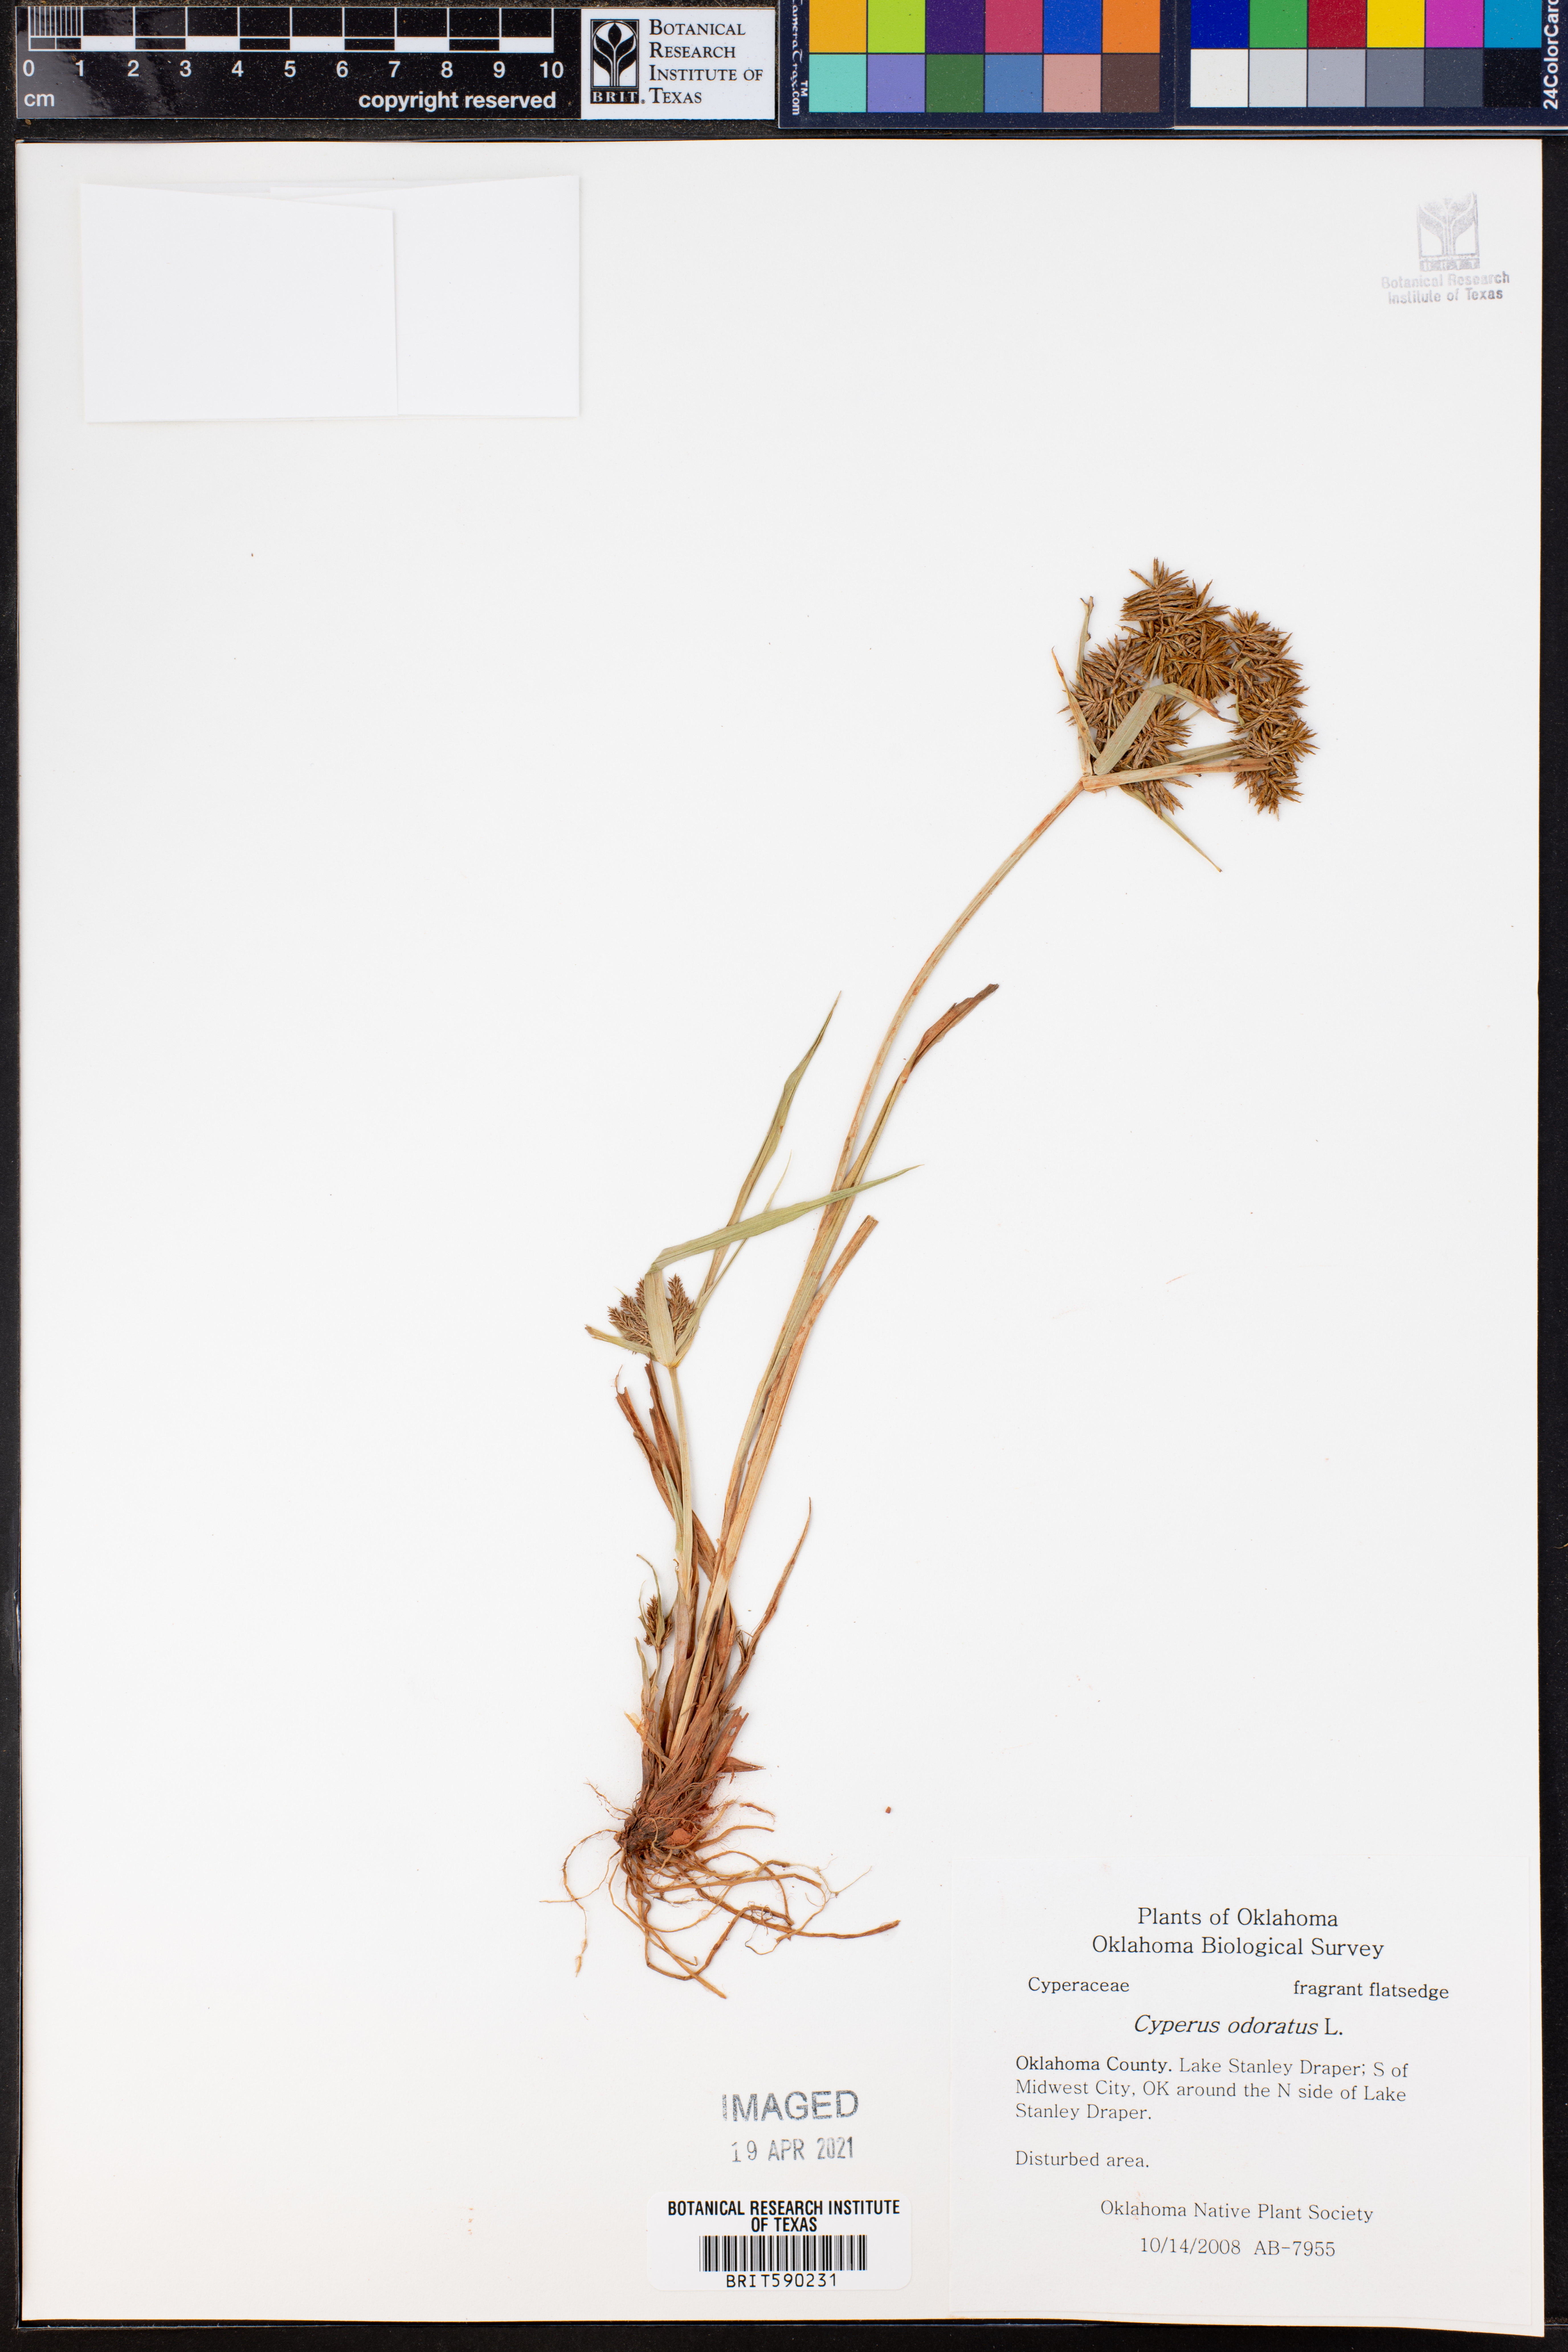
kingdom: Plantae
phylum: Tracheophyta
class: Liliopsida
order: Poales
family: Cyperaceae
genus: Cyperus
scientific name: Cyperus odoratus
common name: Fragrant flatsedge
